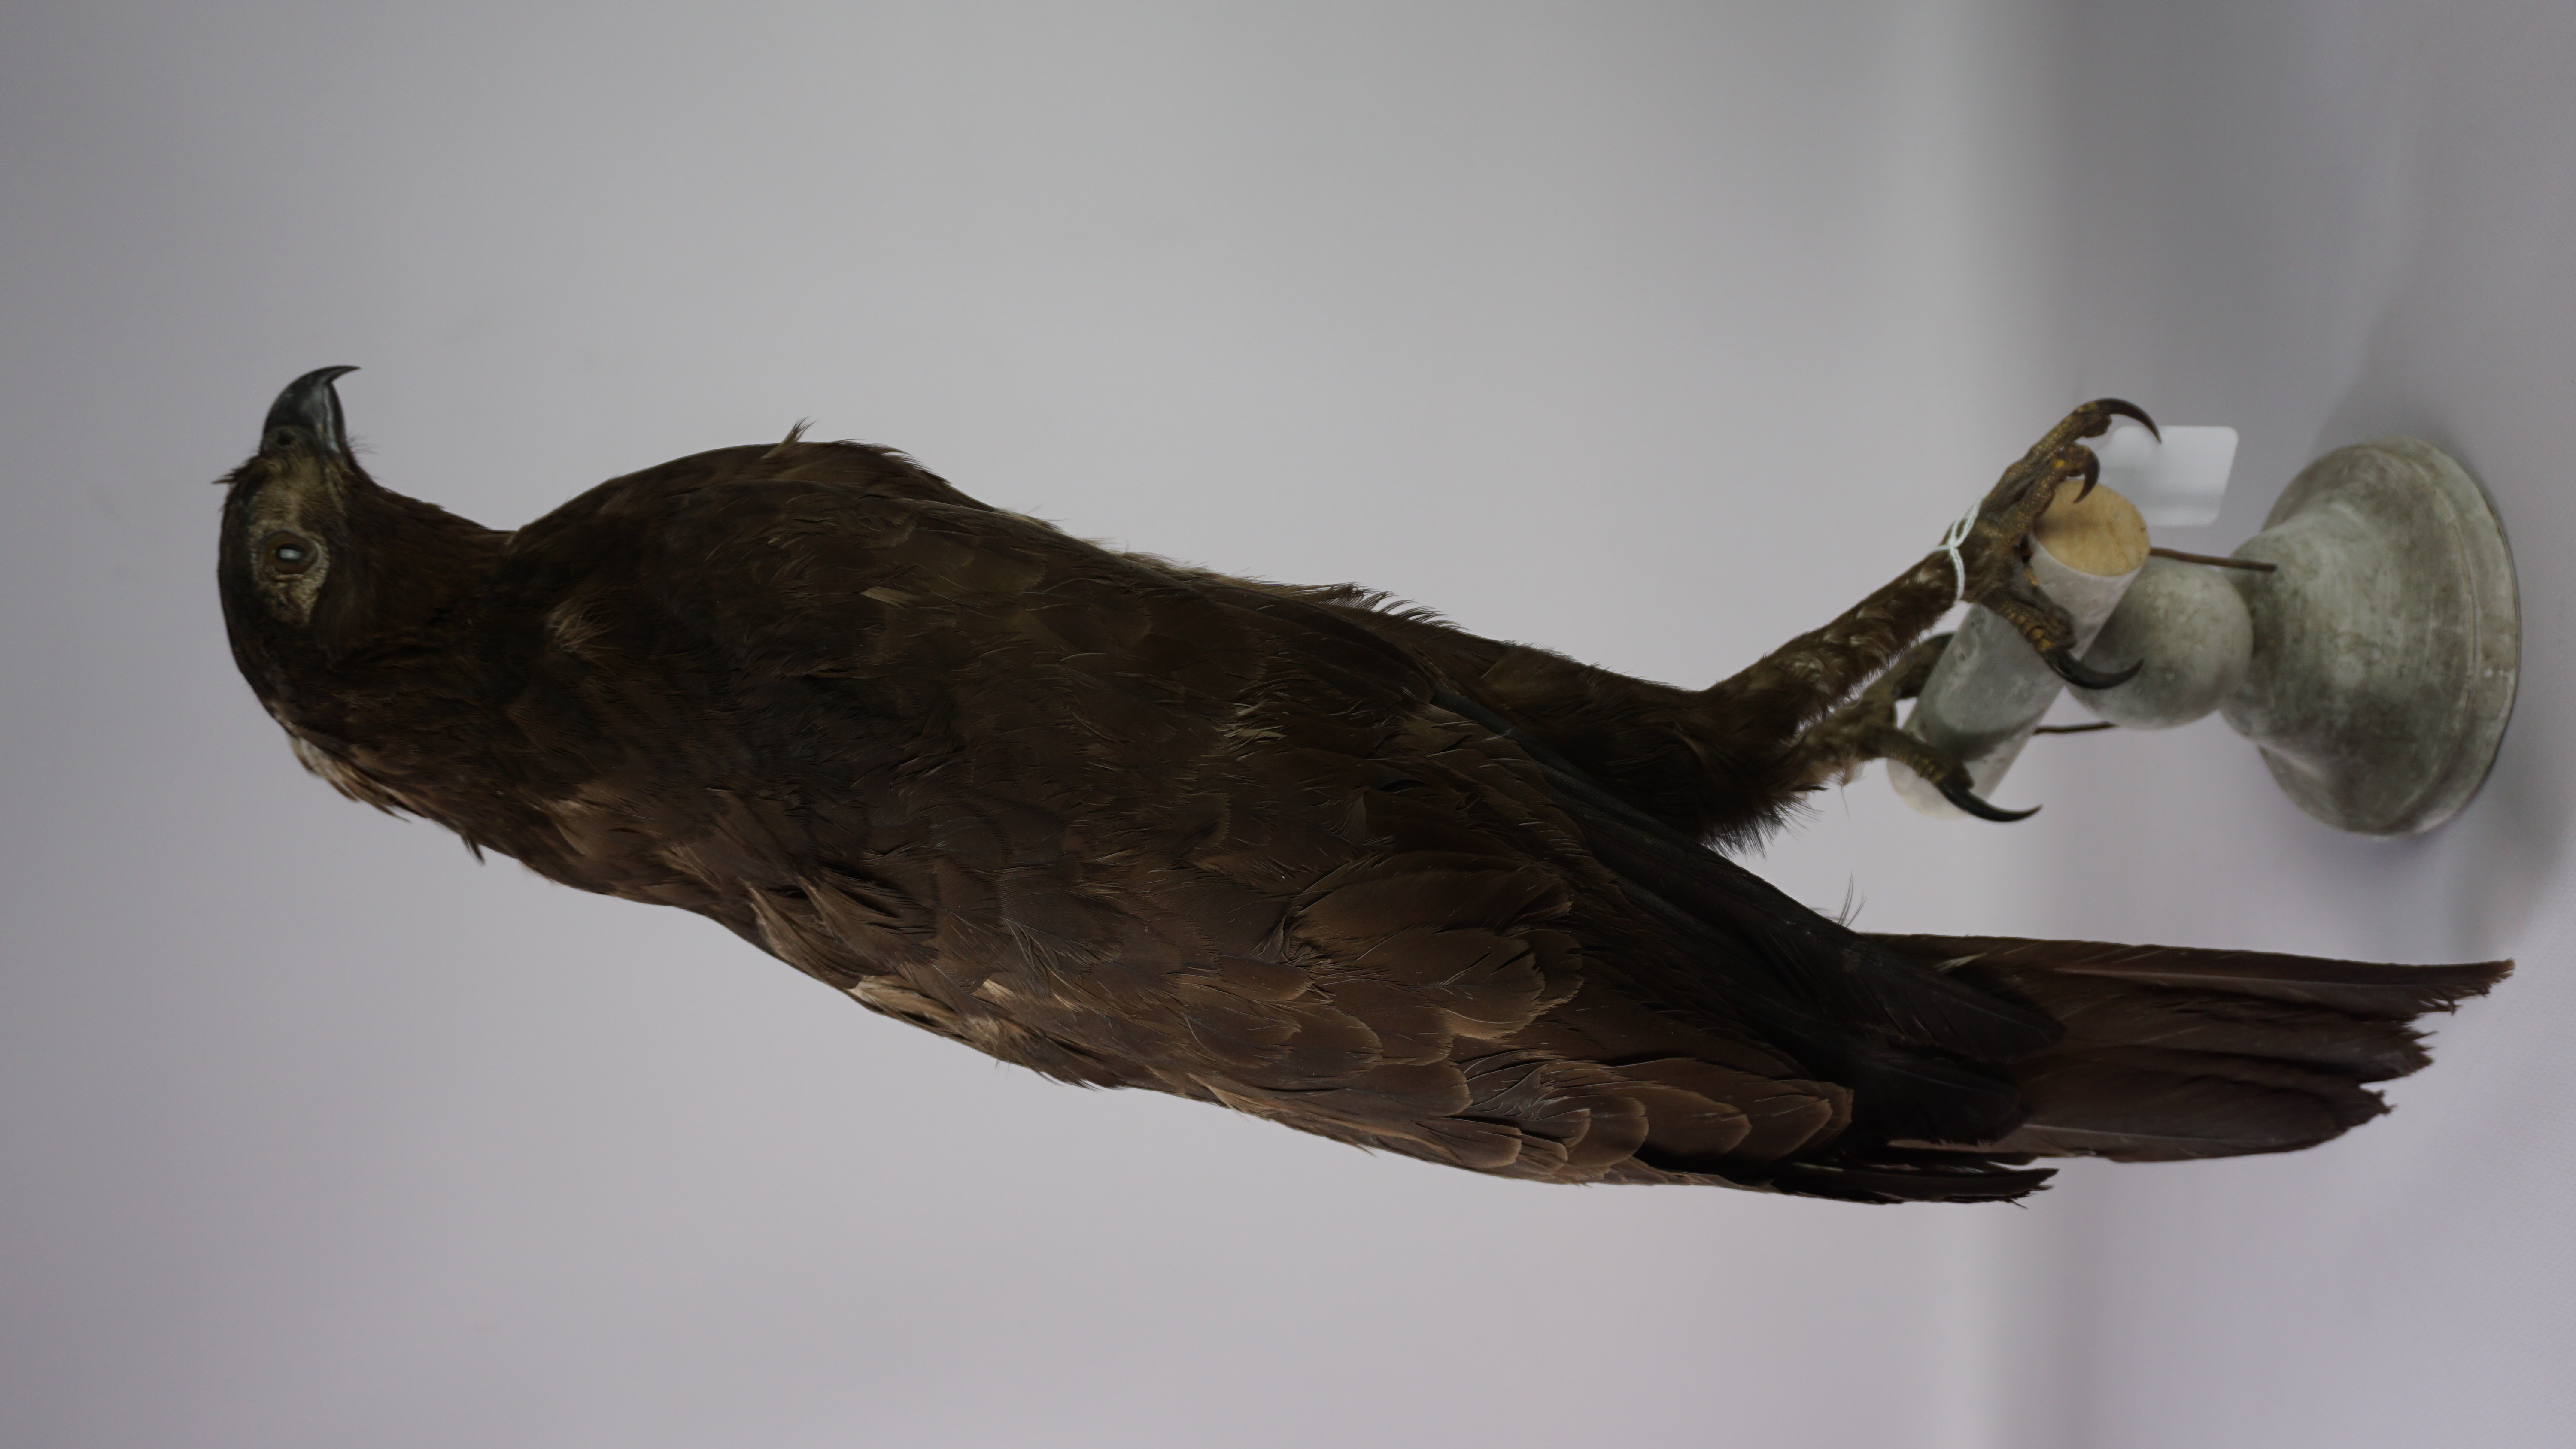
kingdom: Animalia
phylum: Chordata
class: Aves
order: Accipitriformes
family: Accipitridae
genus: Nisaetus
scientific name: Nisaetus cirrhatus
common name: Changeable hawk-eagle
